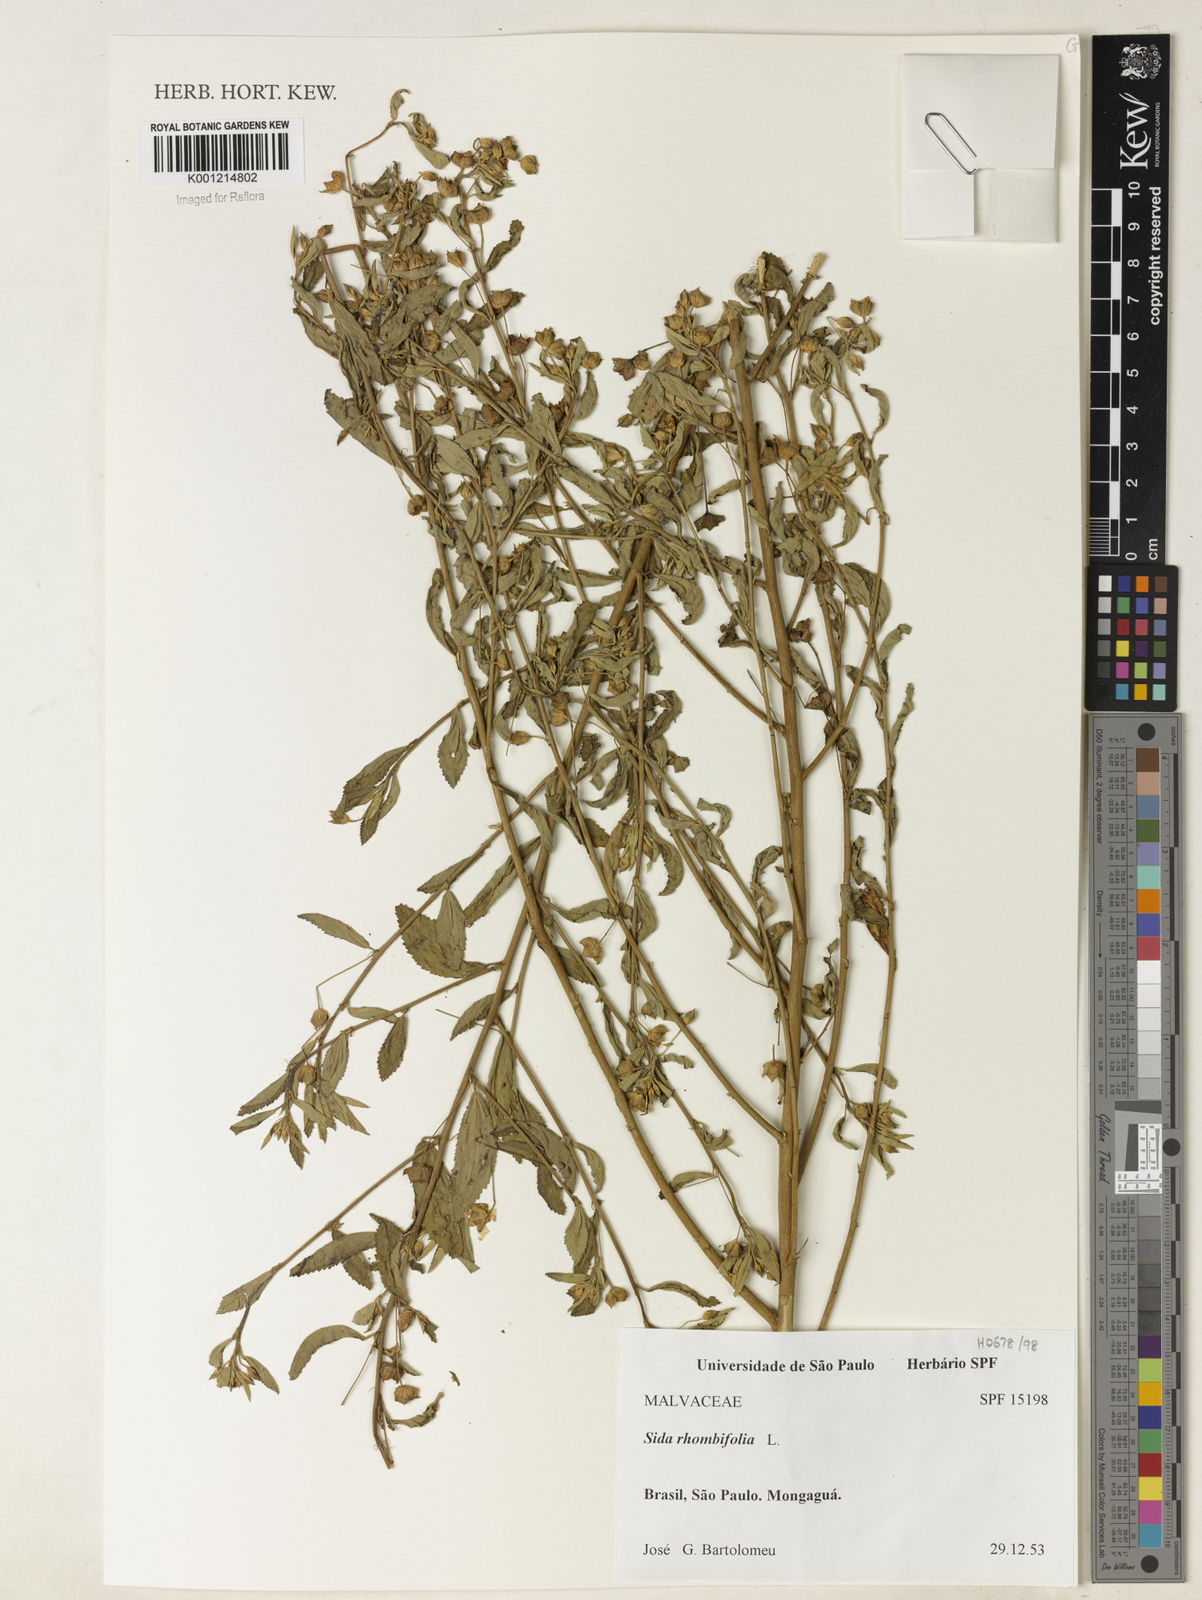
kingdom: Plantae
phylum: Tracheophyta
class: Magnoliopsida
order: Malvales
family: Malvaceae
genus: Sida
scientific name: Sida rhombifolia
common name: Queensland-hemp
